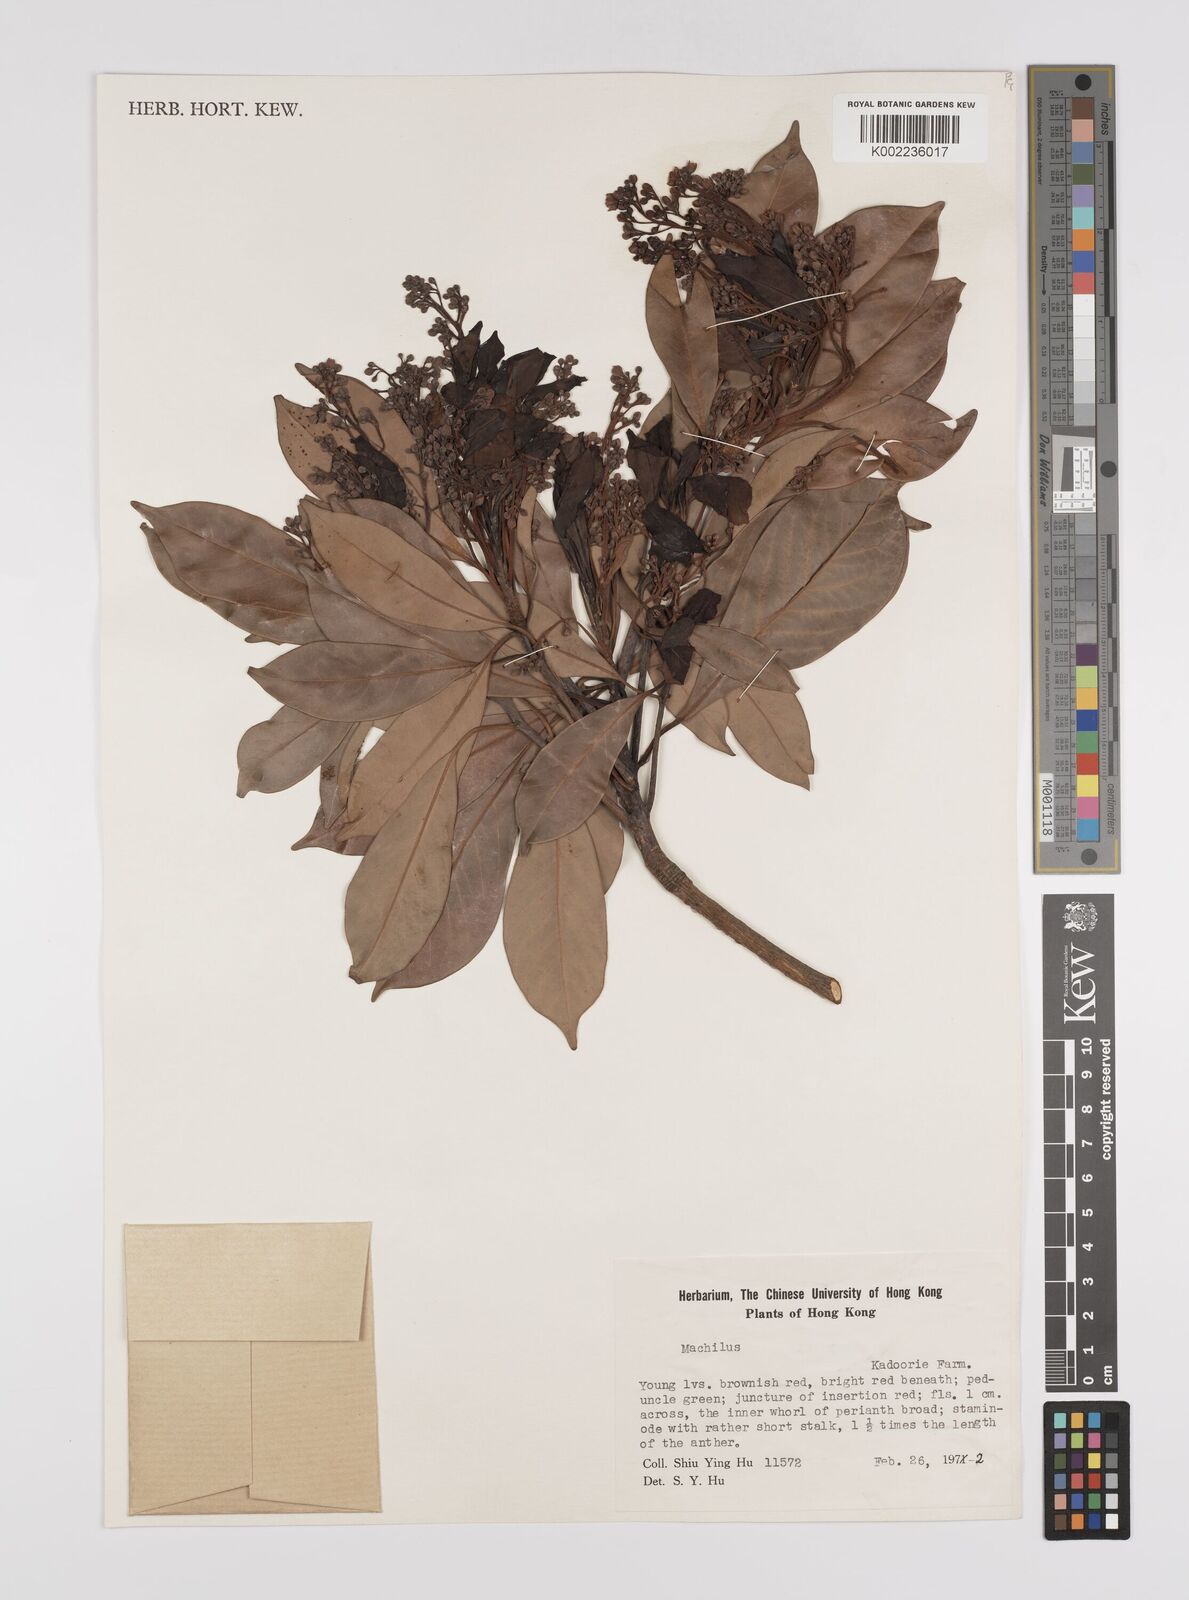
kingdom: Plantae
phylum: Tracheophyta
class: Magnoliopsida
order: Laurales
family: Lauraceae
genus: Persea
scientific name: Persea
